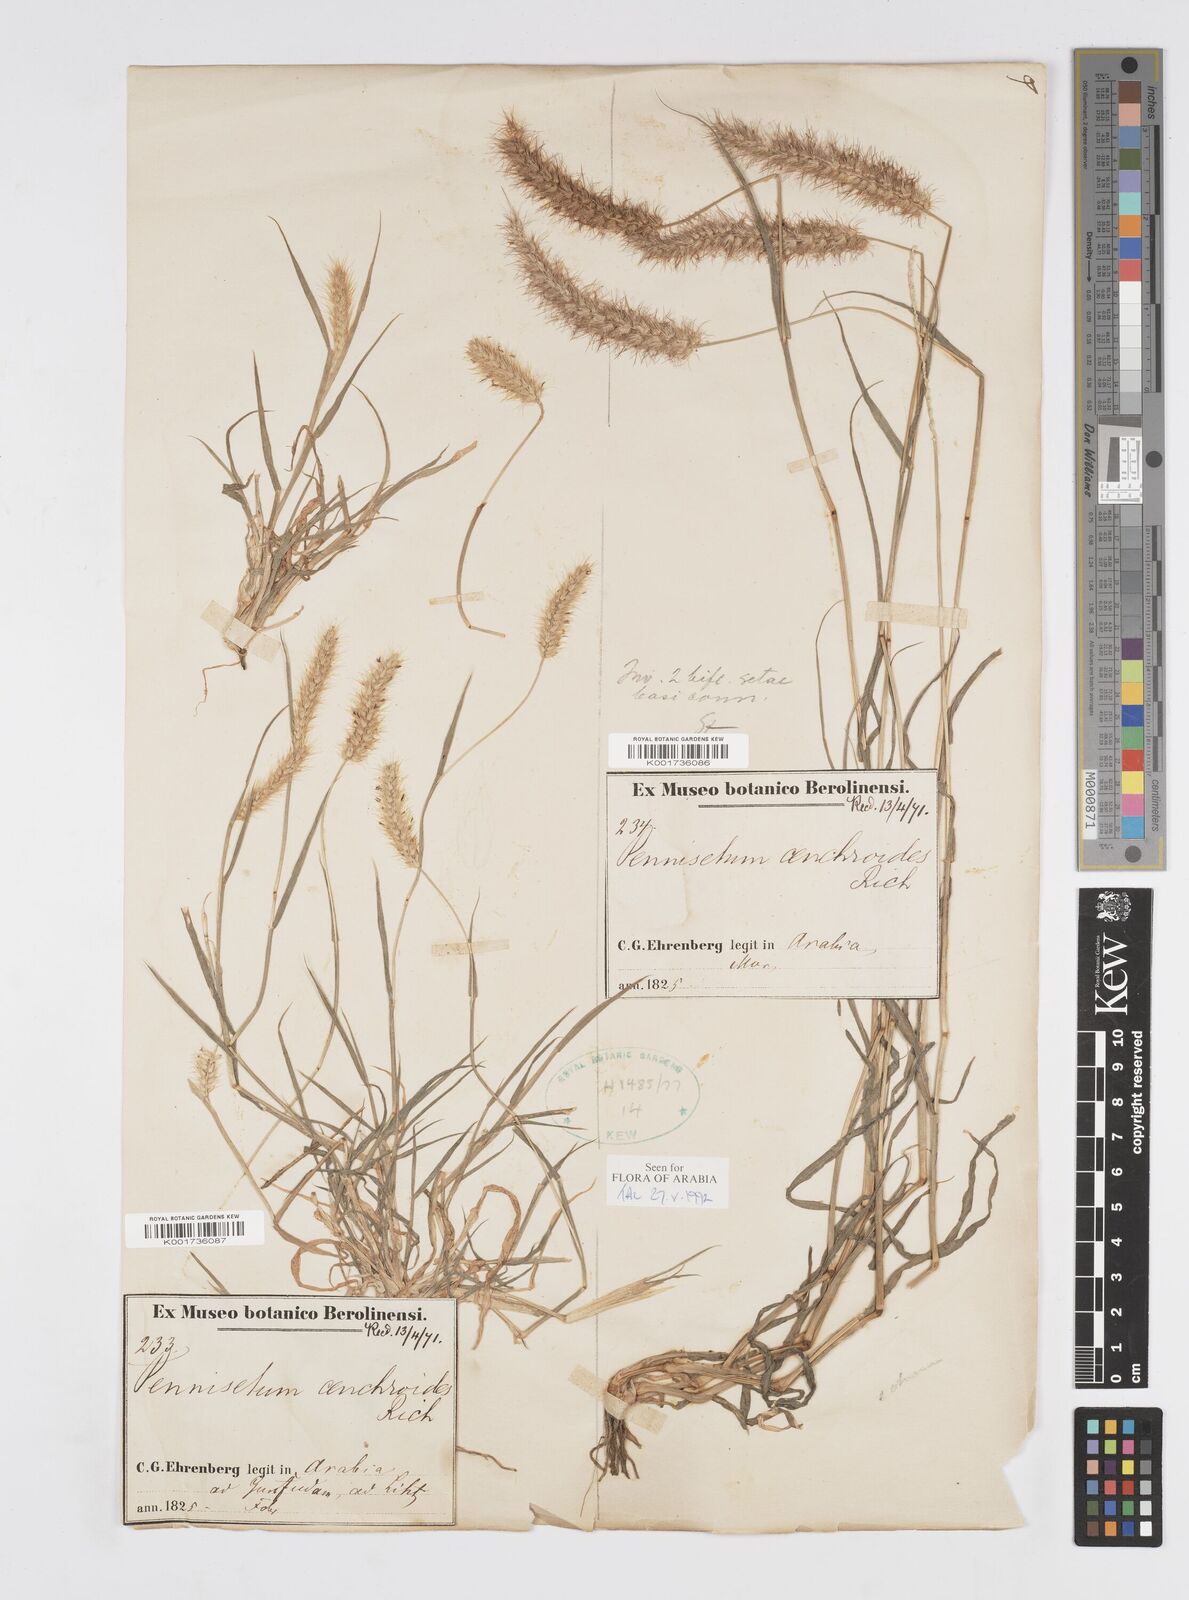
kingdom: Plantae
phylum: Tracheophyta
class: Liliopsida
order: Poales
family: Poaceae
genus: Cenchrus
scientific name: Cenchrus ciliaris
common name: Buffelgrass
